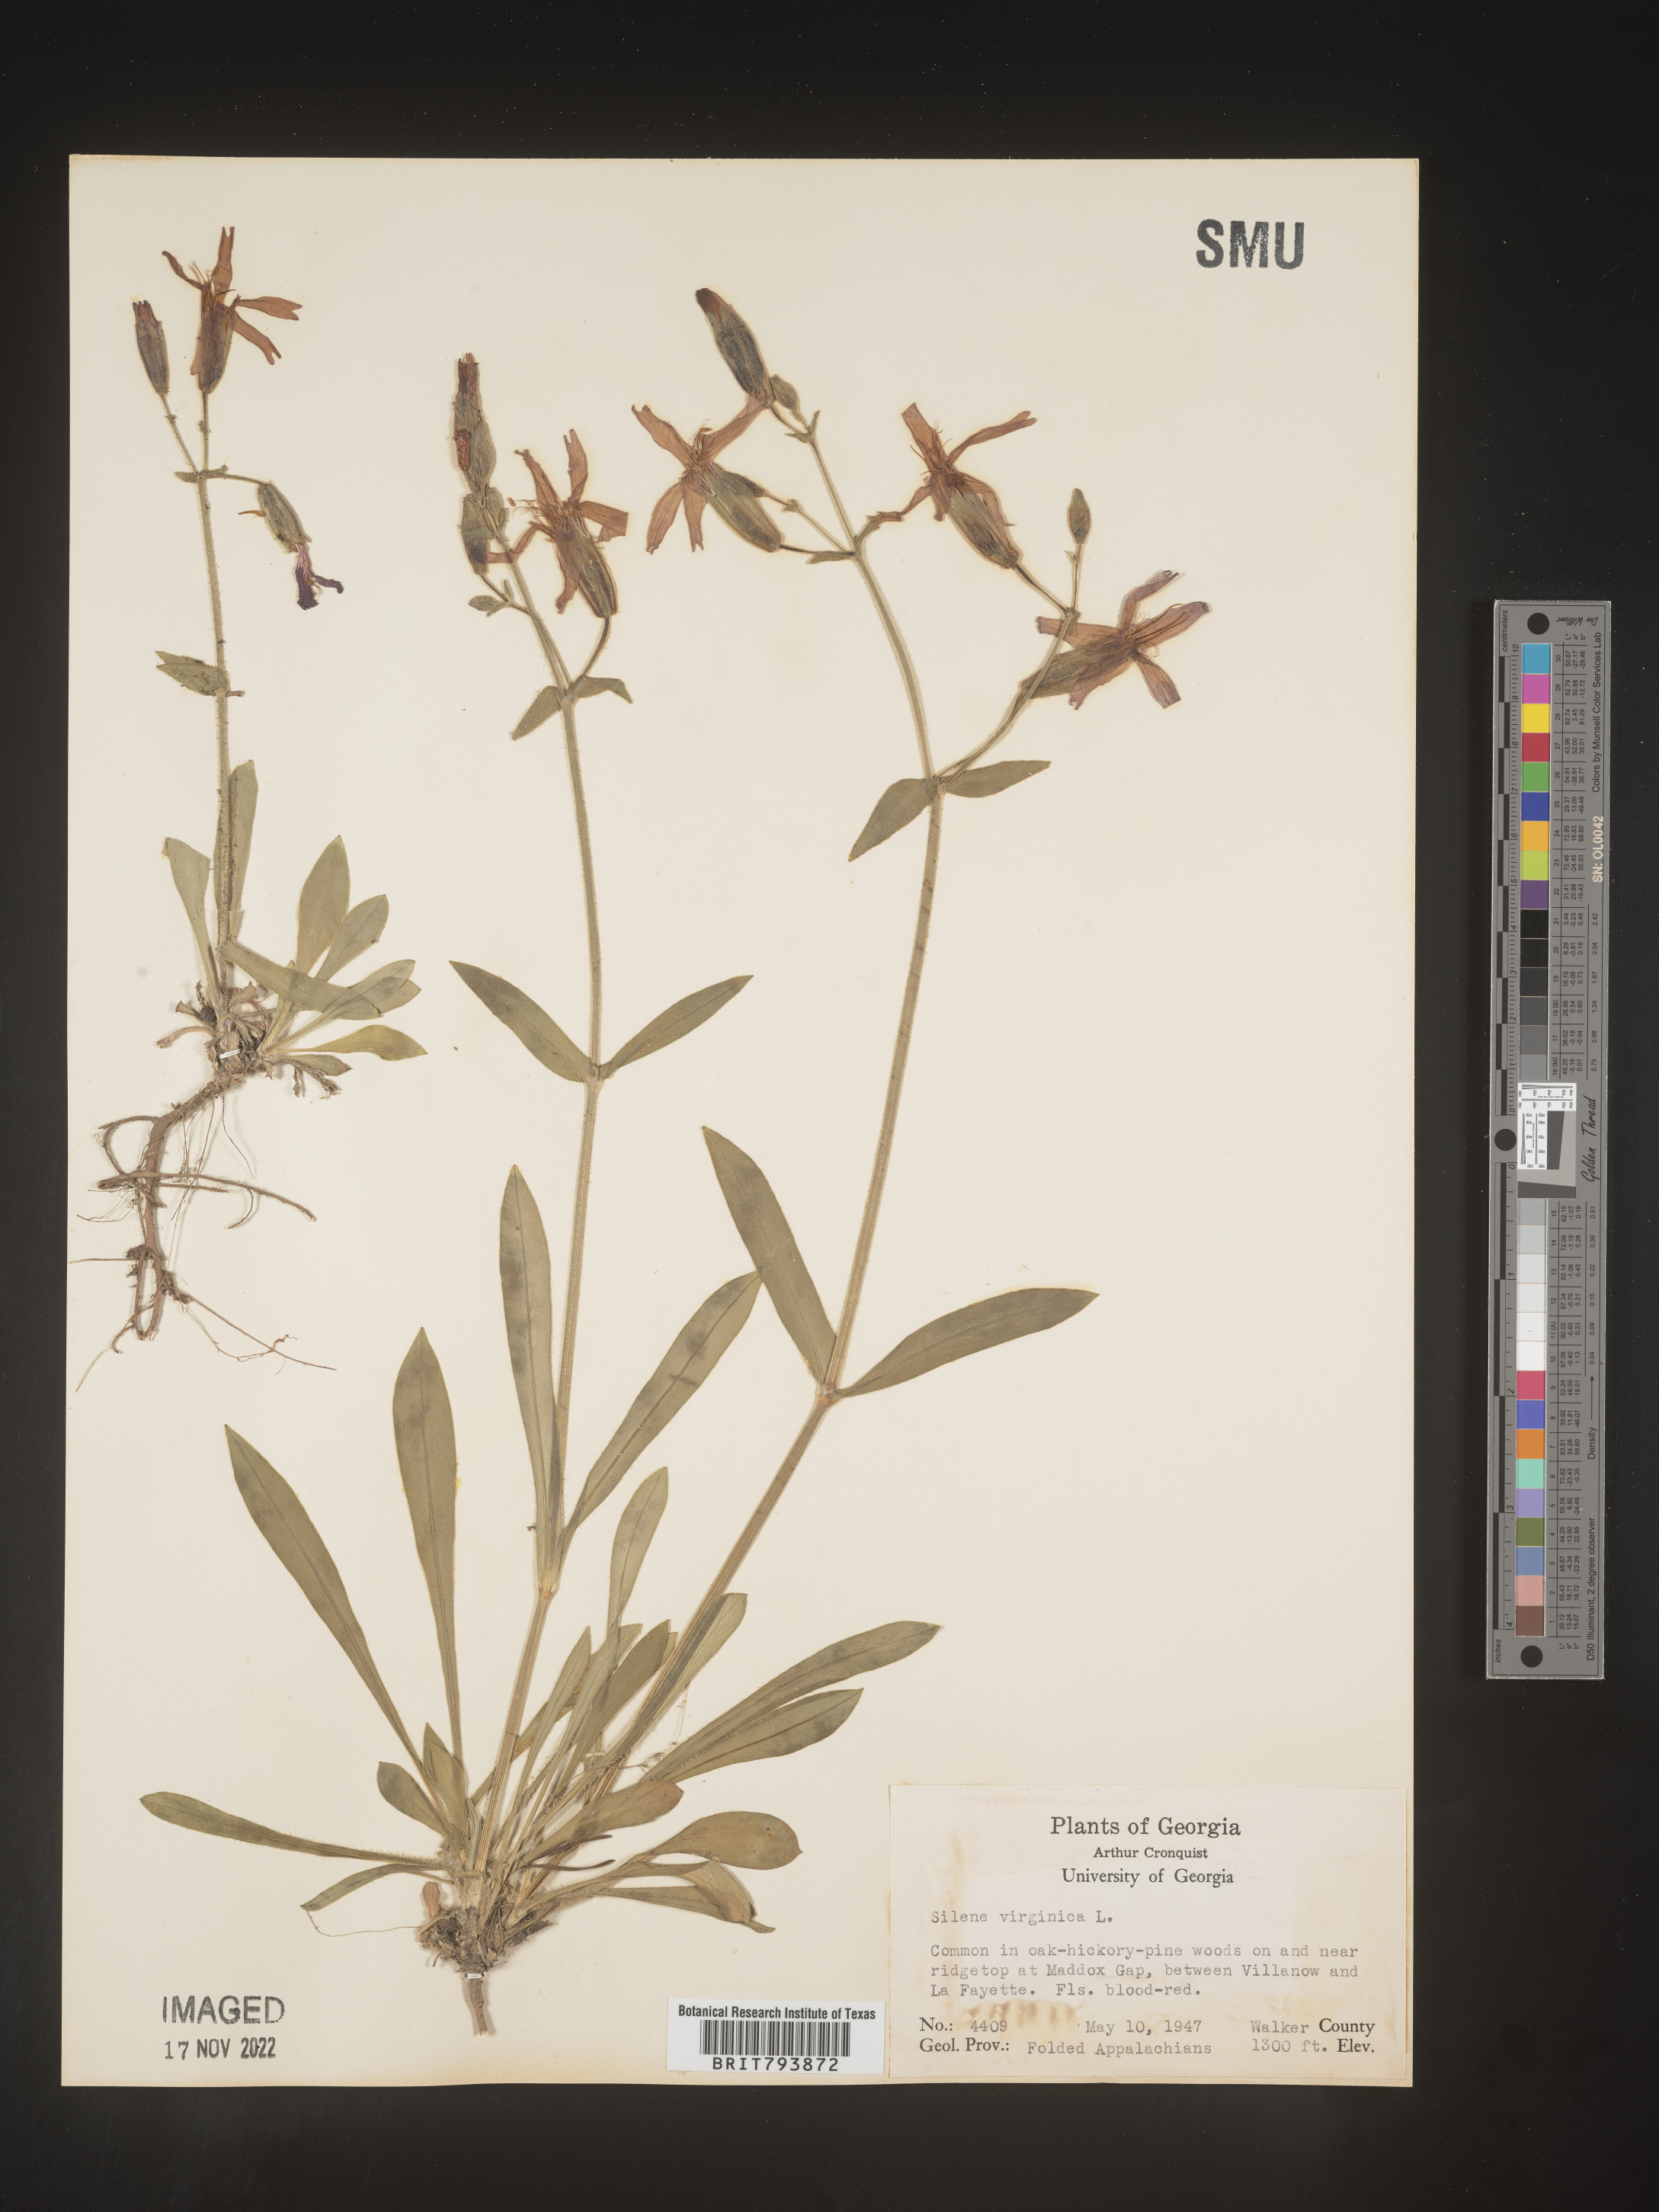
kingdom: Plantae
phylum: Tracheophyta
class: Magnoliopsida
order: Caryophyllales
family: Caryophyllaceae
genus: Silene
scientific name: Silene virginica
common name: Fire-pink
